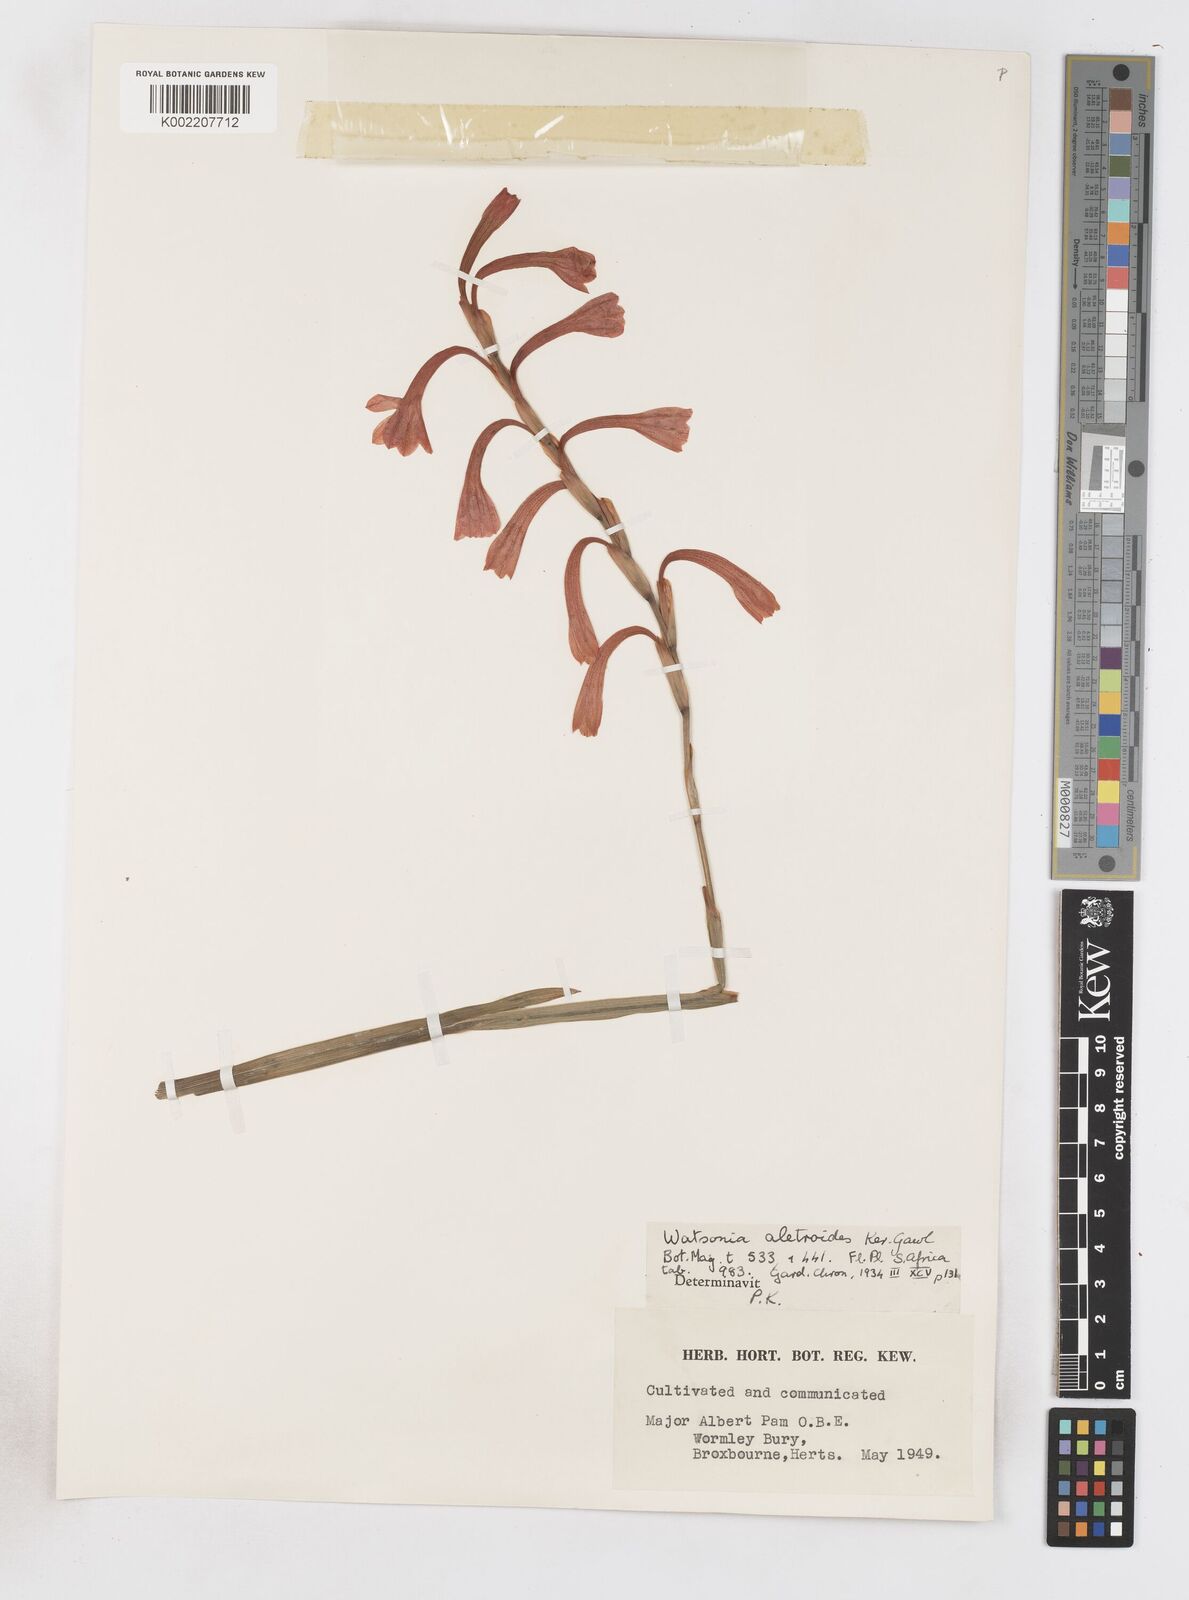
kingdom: Plantae
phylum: Tracheophyta
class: Liliopsida
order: Asparagales
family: Iridaceae
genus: Watsonia
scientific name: Watsonia aletroides
